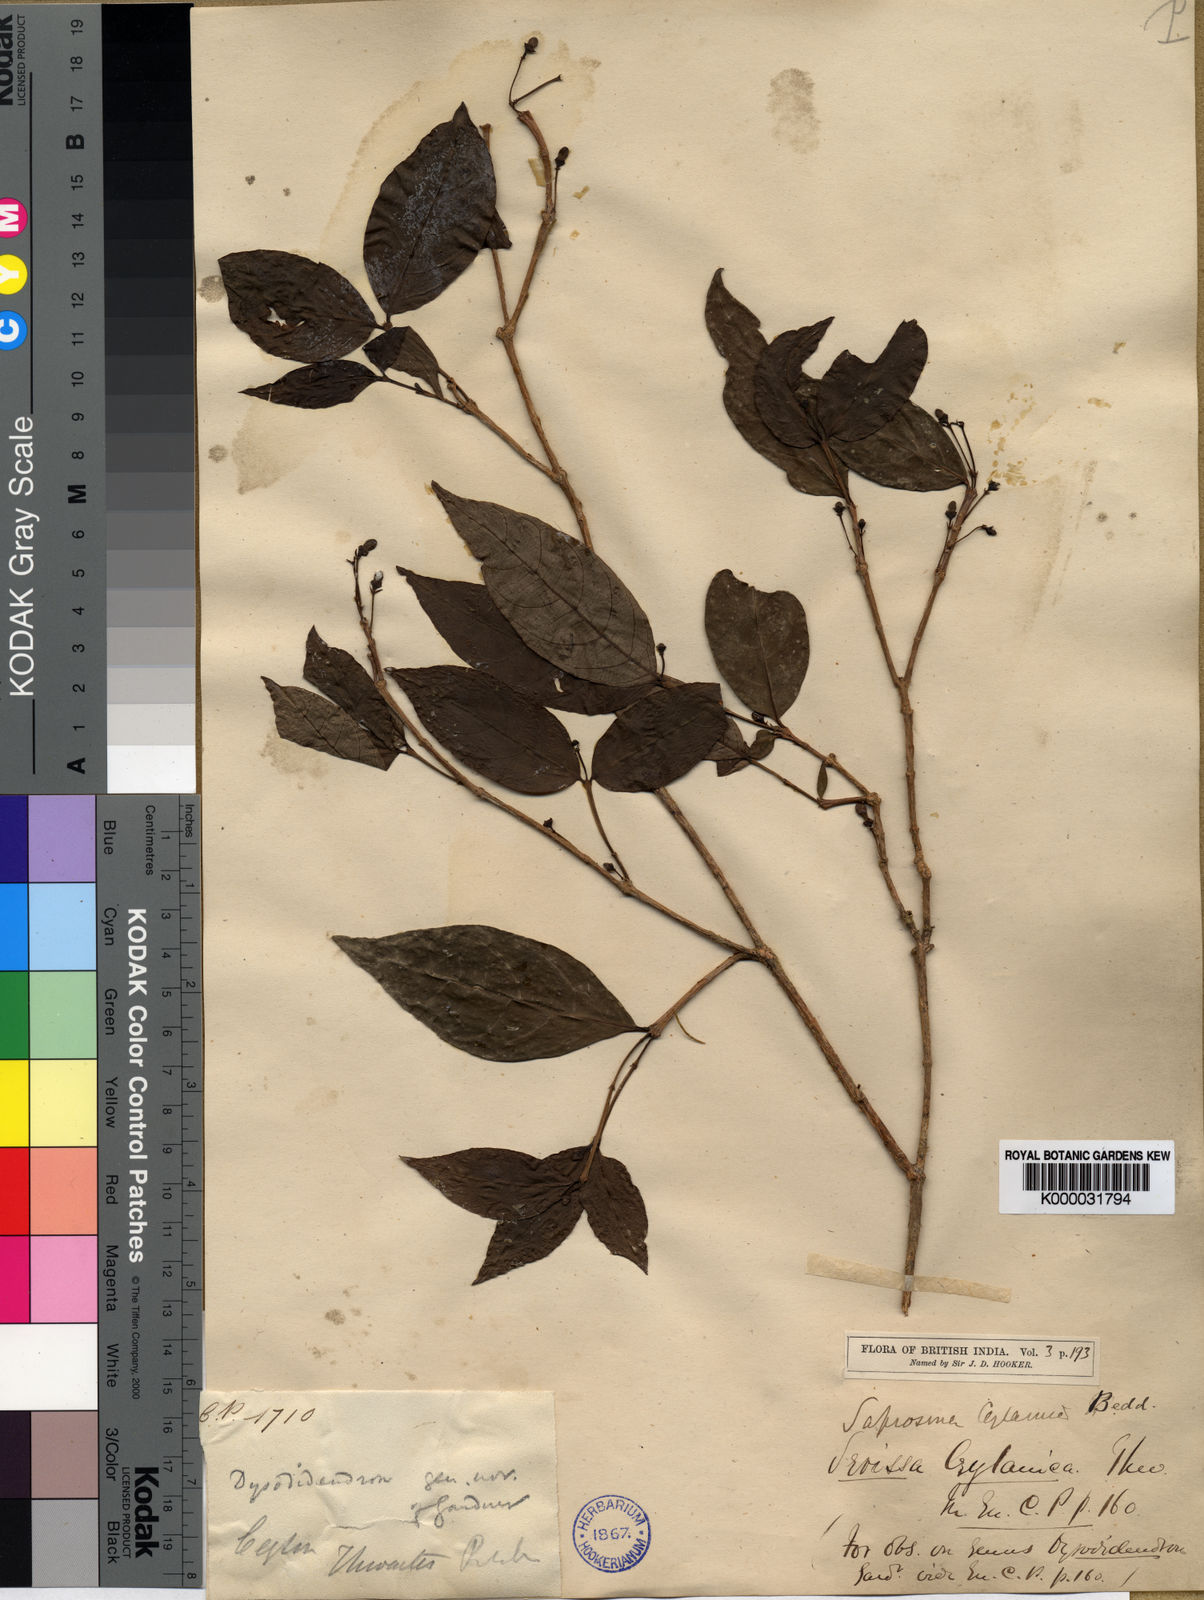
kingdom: Plantae
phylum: Tracheophyta
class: Magnoliopsida
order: Gentianales
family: Rubiaceae
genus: Saprosma
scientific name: Saprosma foetens
